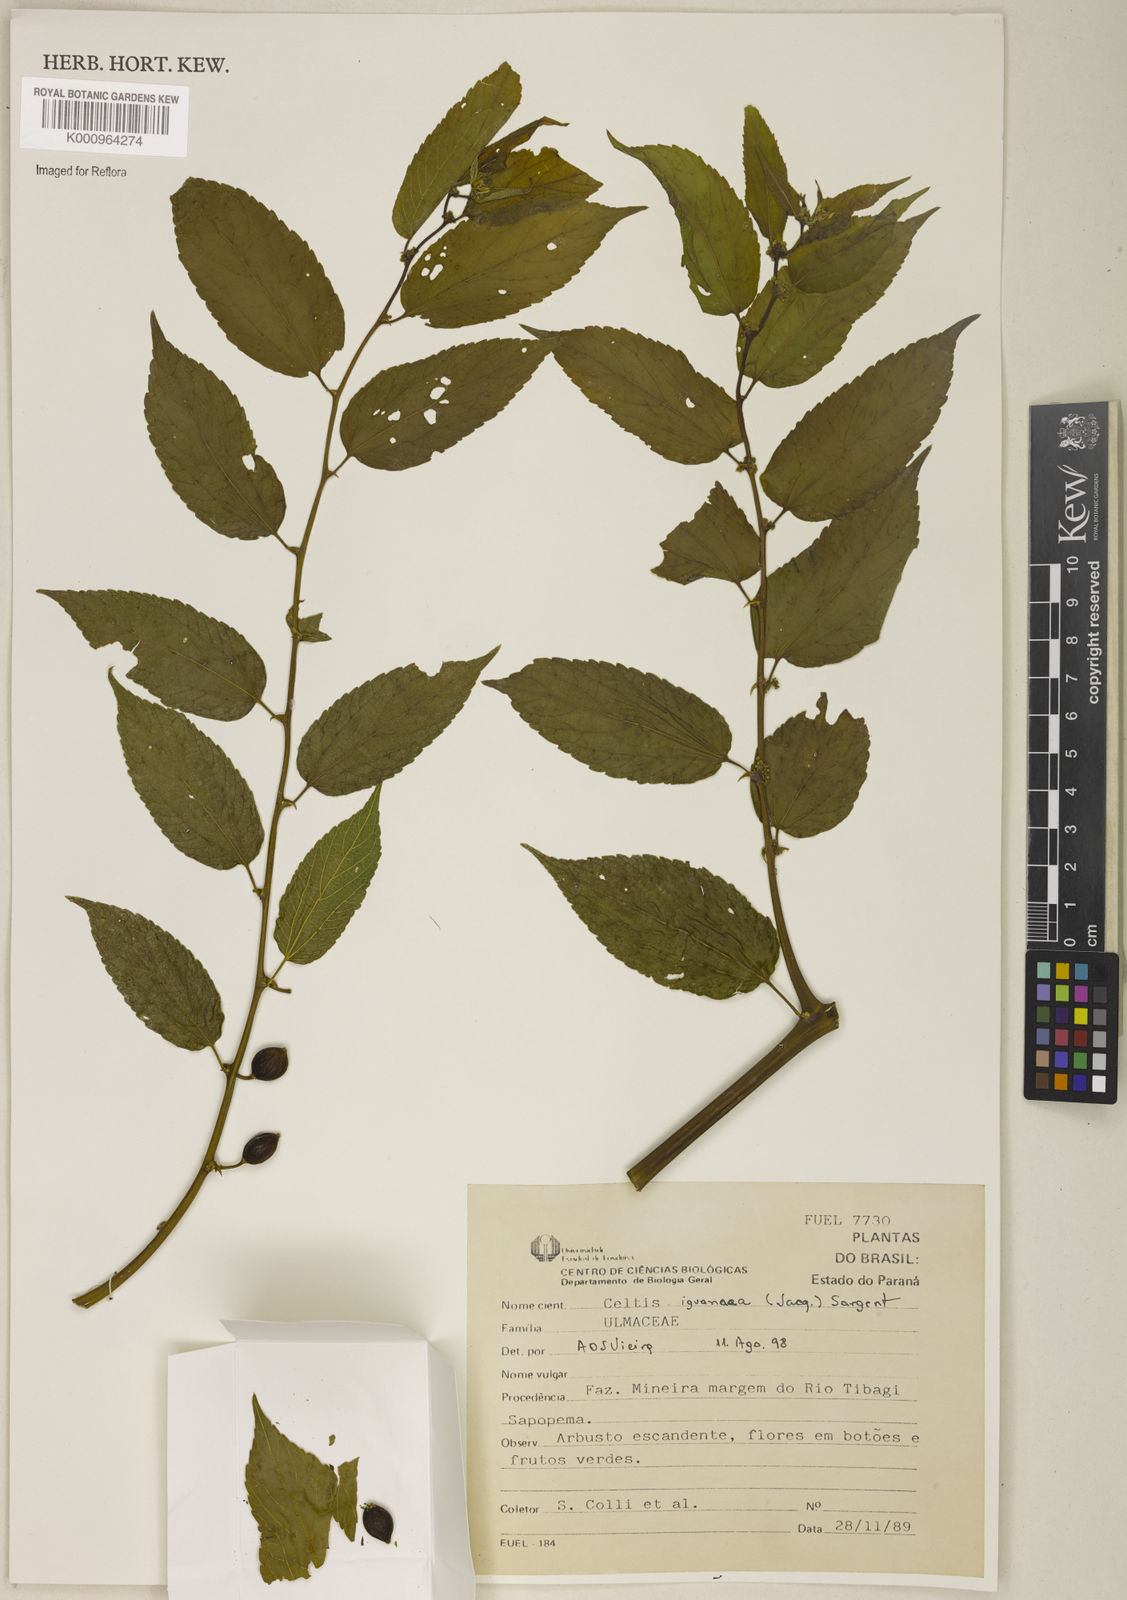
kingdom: Plantae
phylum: Tracheophyta
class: Magnoliopsida
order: Rosales
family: Cannabaceae
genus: Celtis
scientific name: Celtis iguanaea
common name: Iguana hackberry
